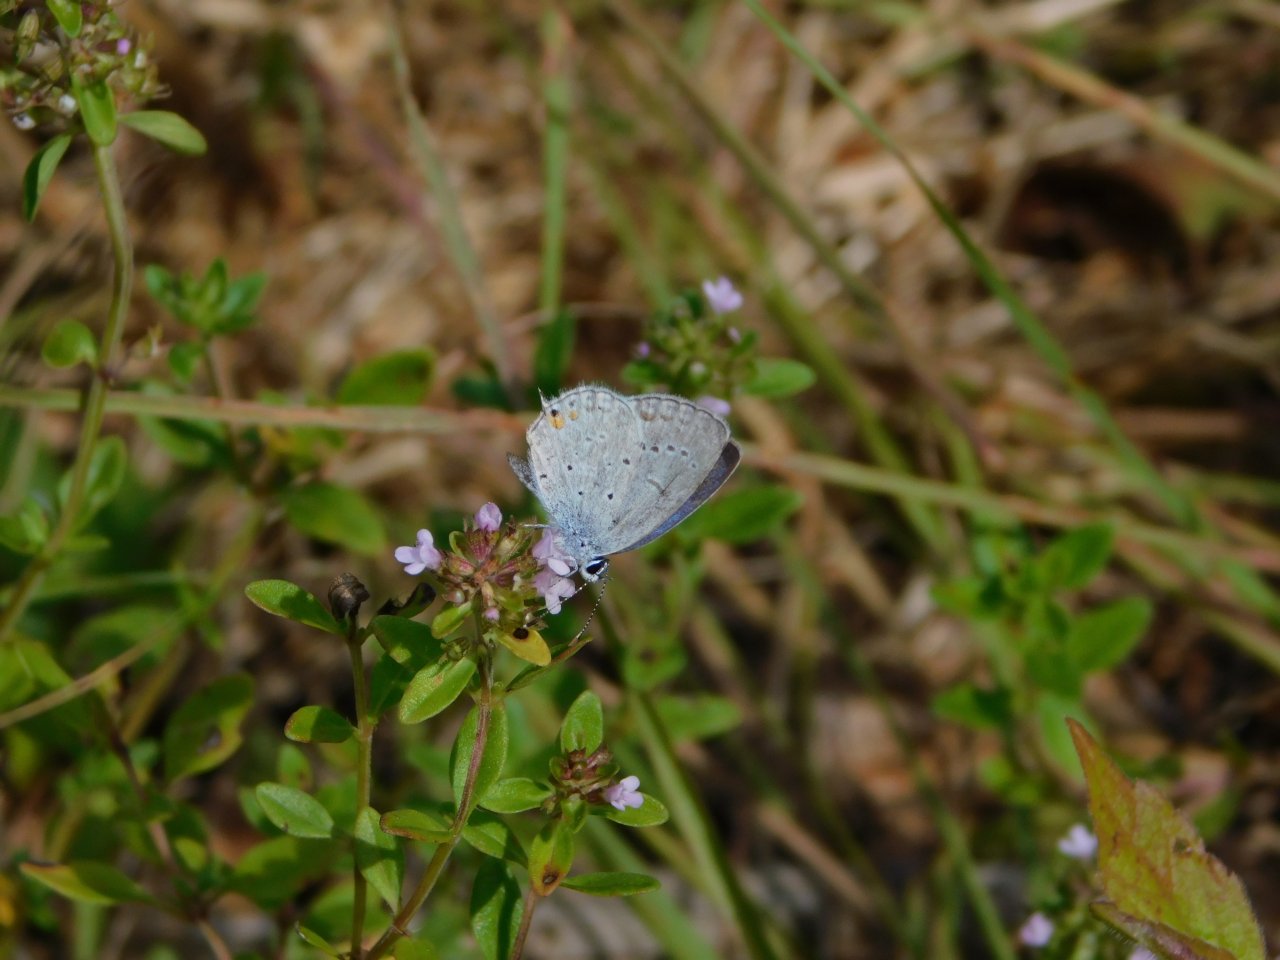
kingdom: Animalia
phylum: Arthropoda
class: Insecta
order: Lepidoptera
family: Lycaenidae
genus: Elkalyce
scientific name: Elkalyce comyntas
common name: Eastern Tailed-Blue
